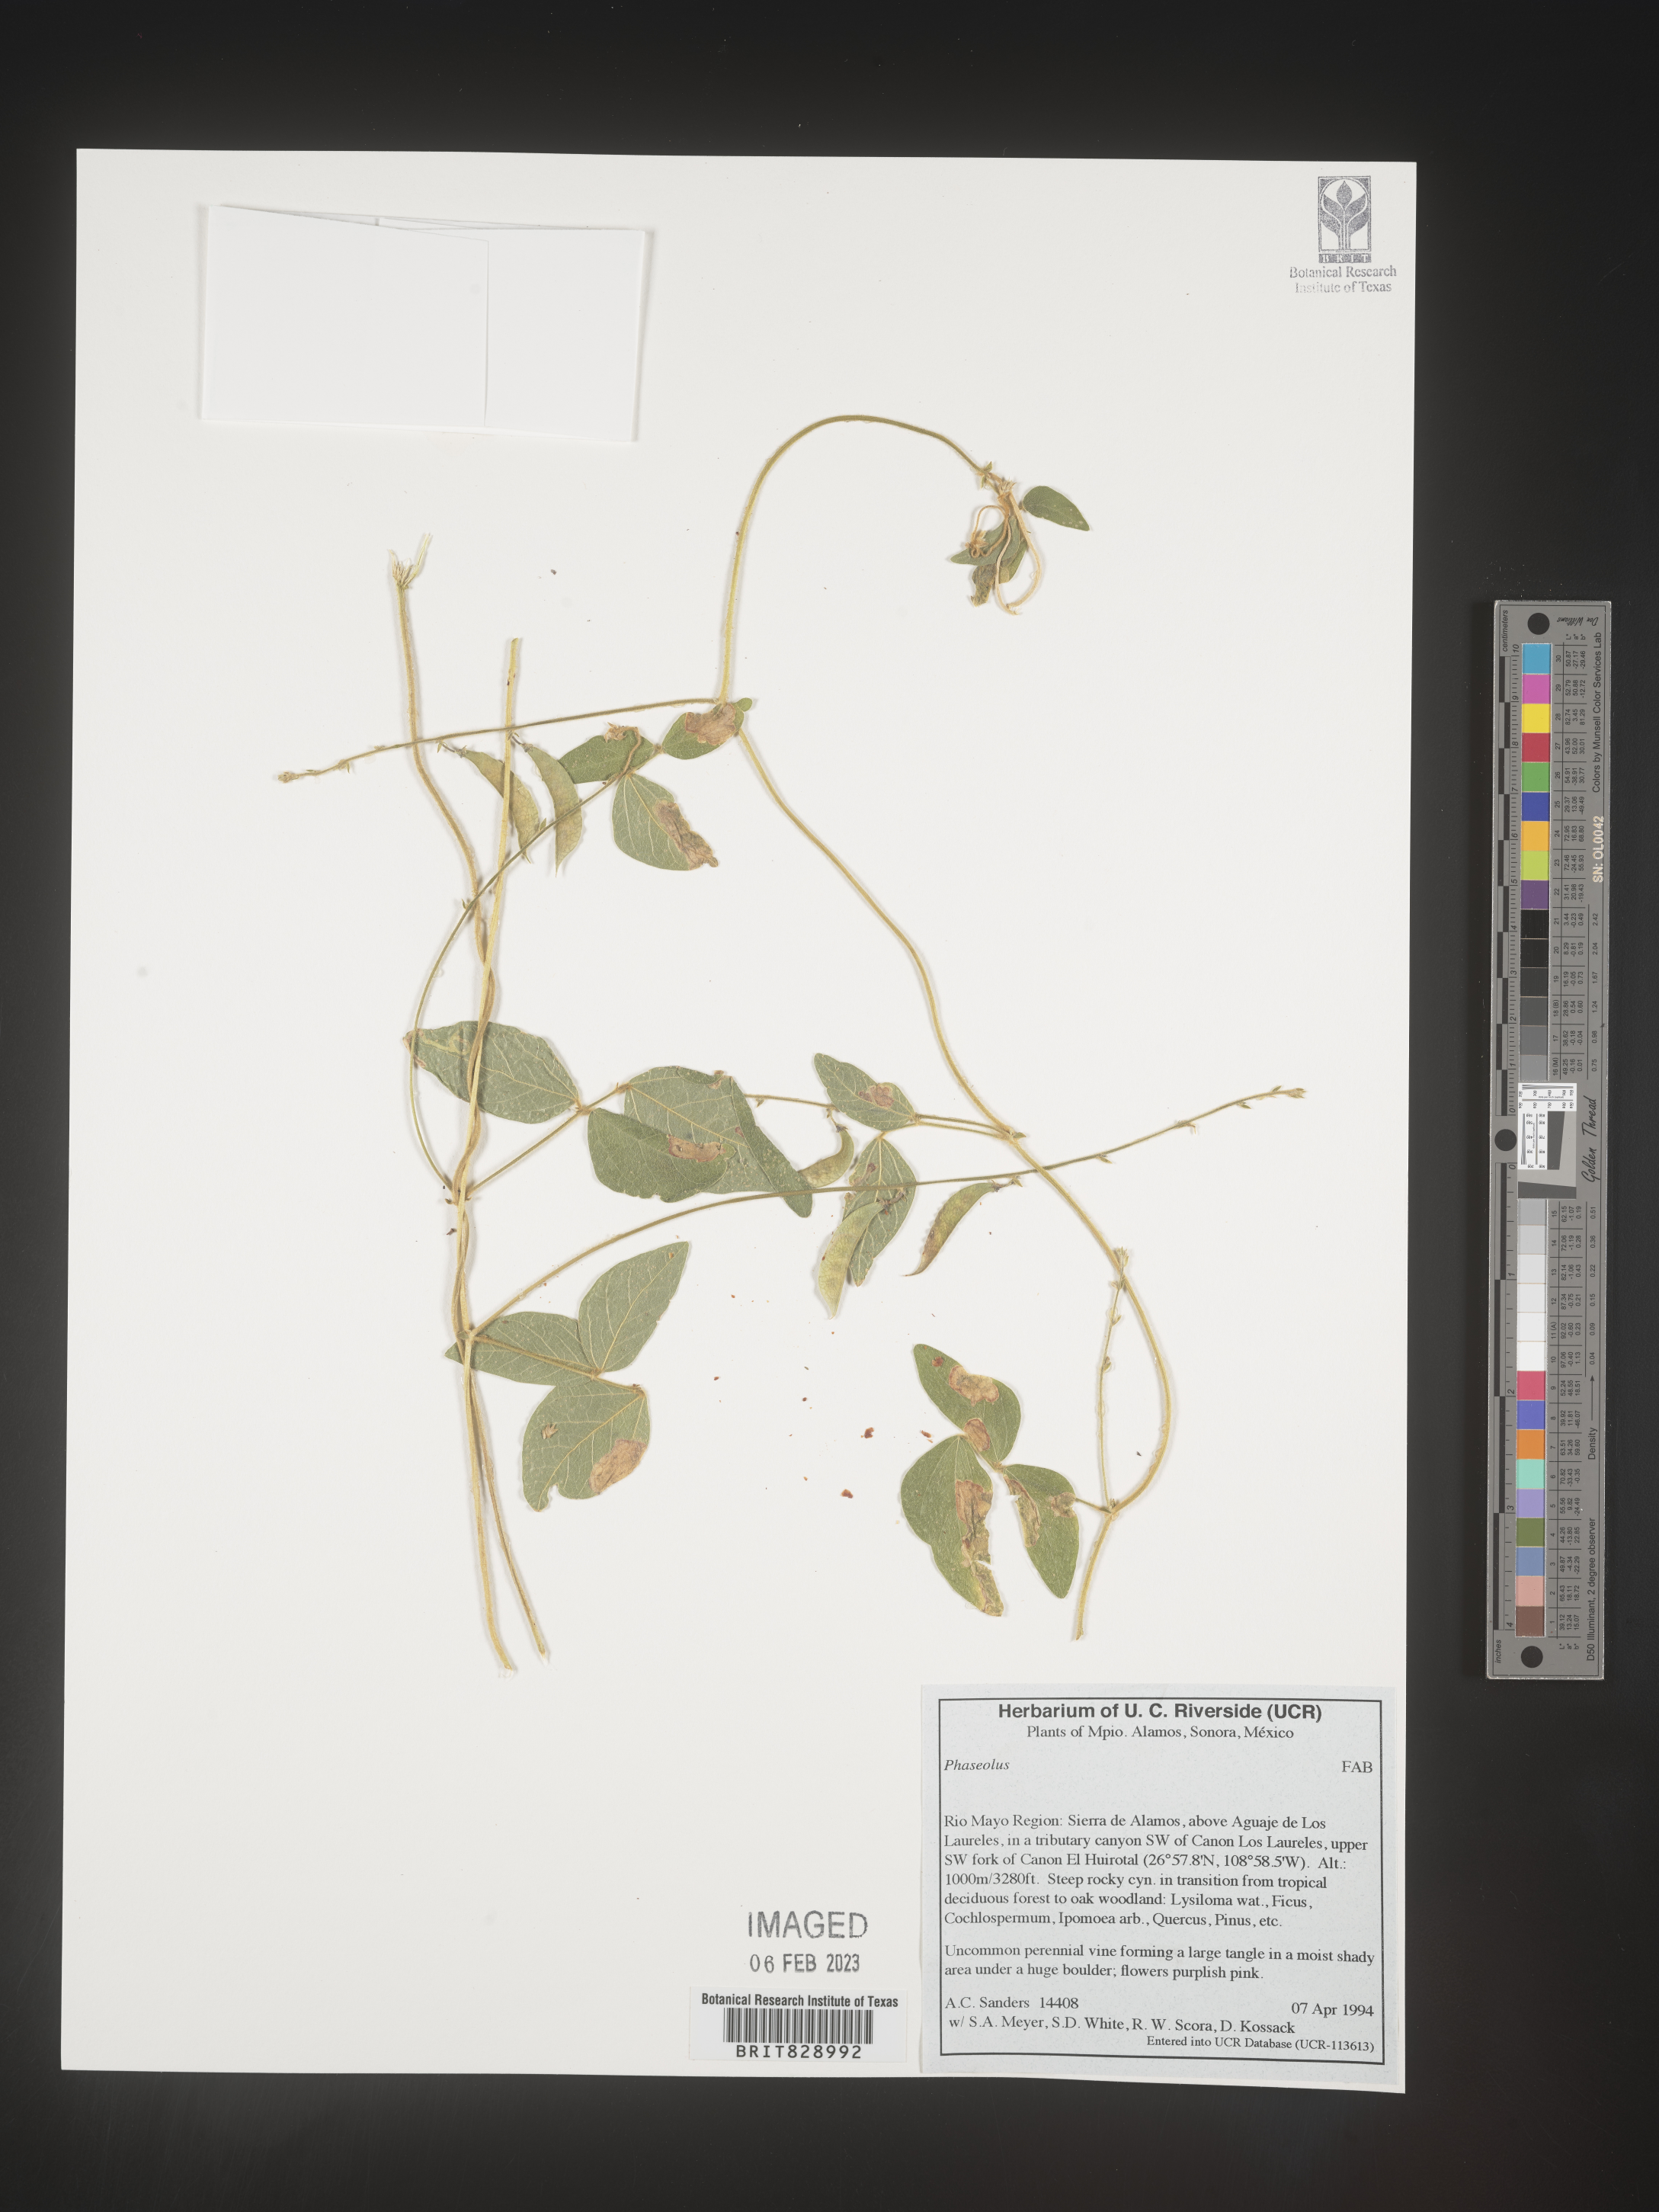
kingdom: Plantae
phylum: Tracheophyta
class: Magnoliopsida
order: Fabales
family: Fabaceae
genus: Phaseolus
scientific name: Phaseolus
